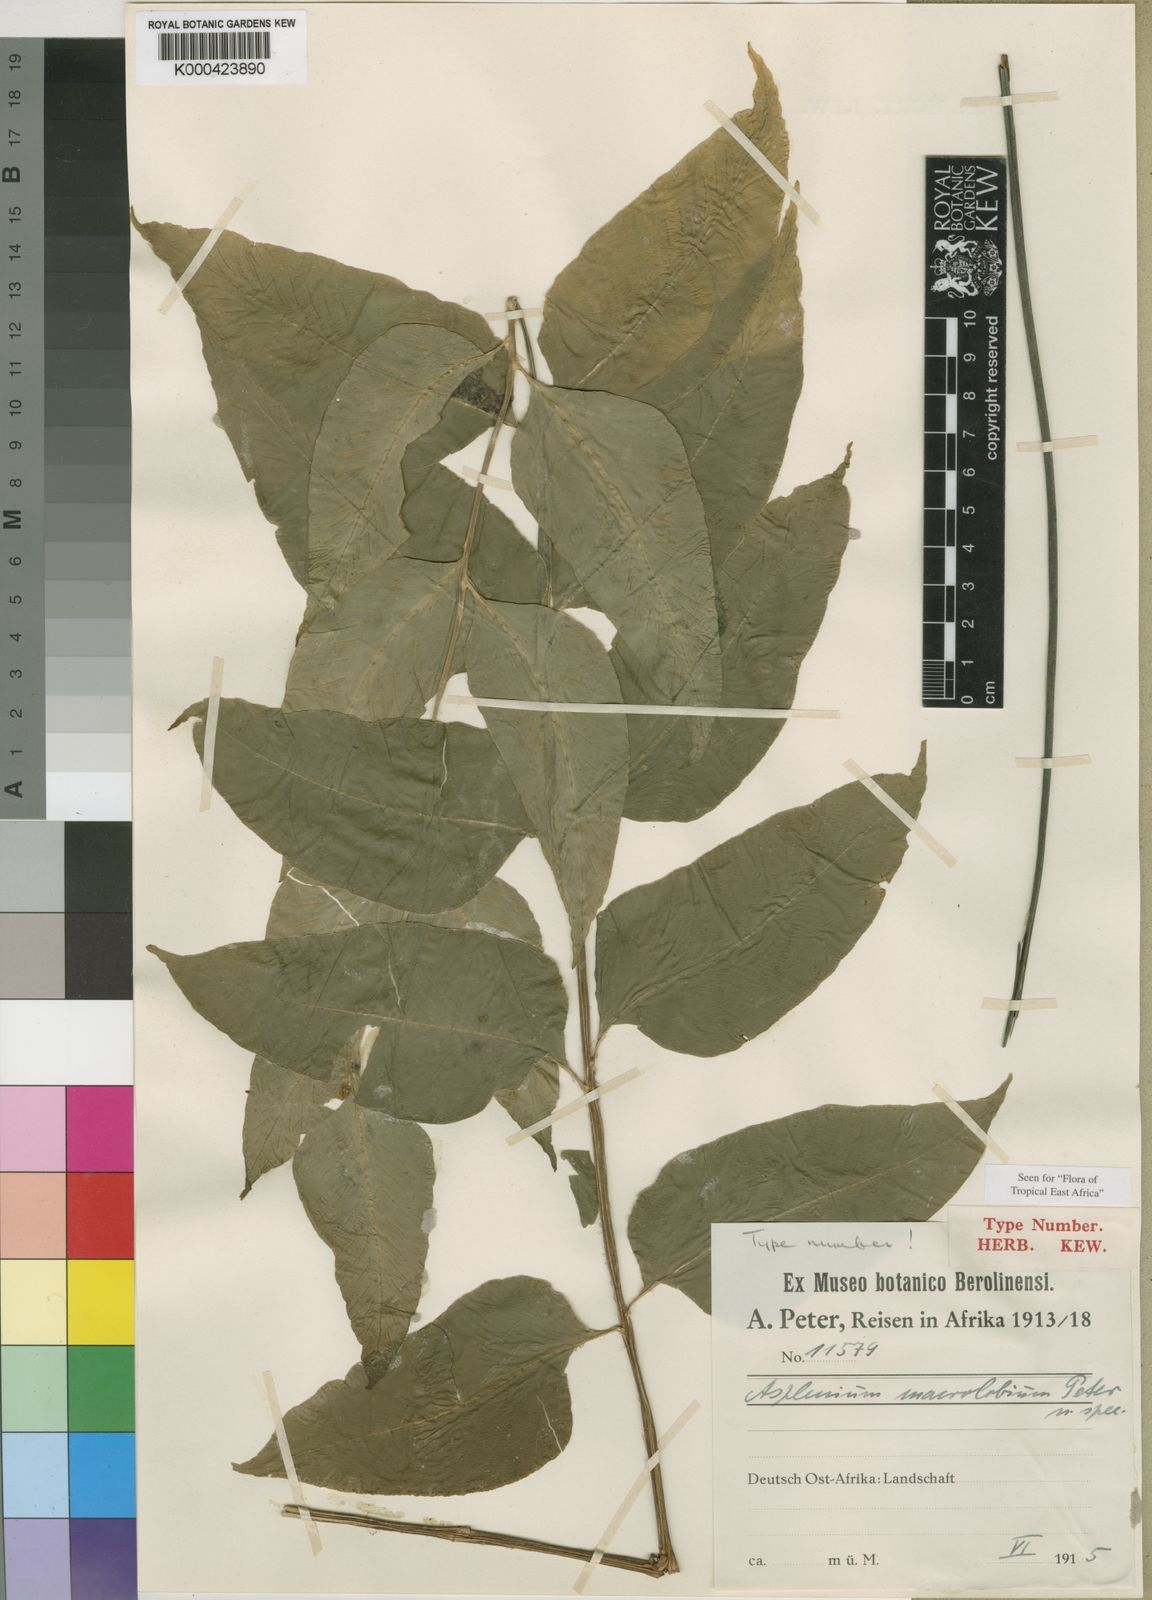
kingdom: Plantae
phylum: Tracheophyta
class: Polypodiopsida
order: Polypodiales
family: Aspleniaceae
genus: Asplenium
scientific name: Asplenium gemmiferum
